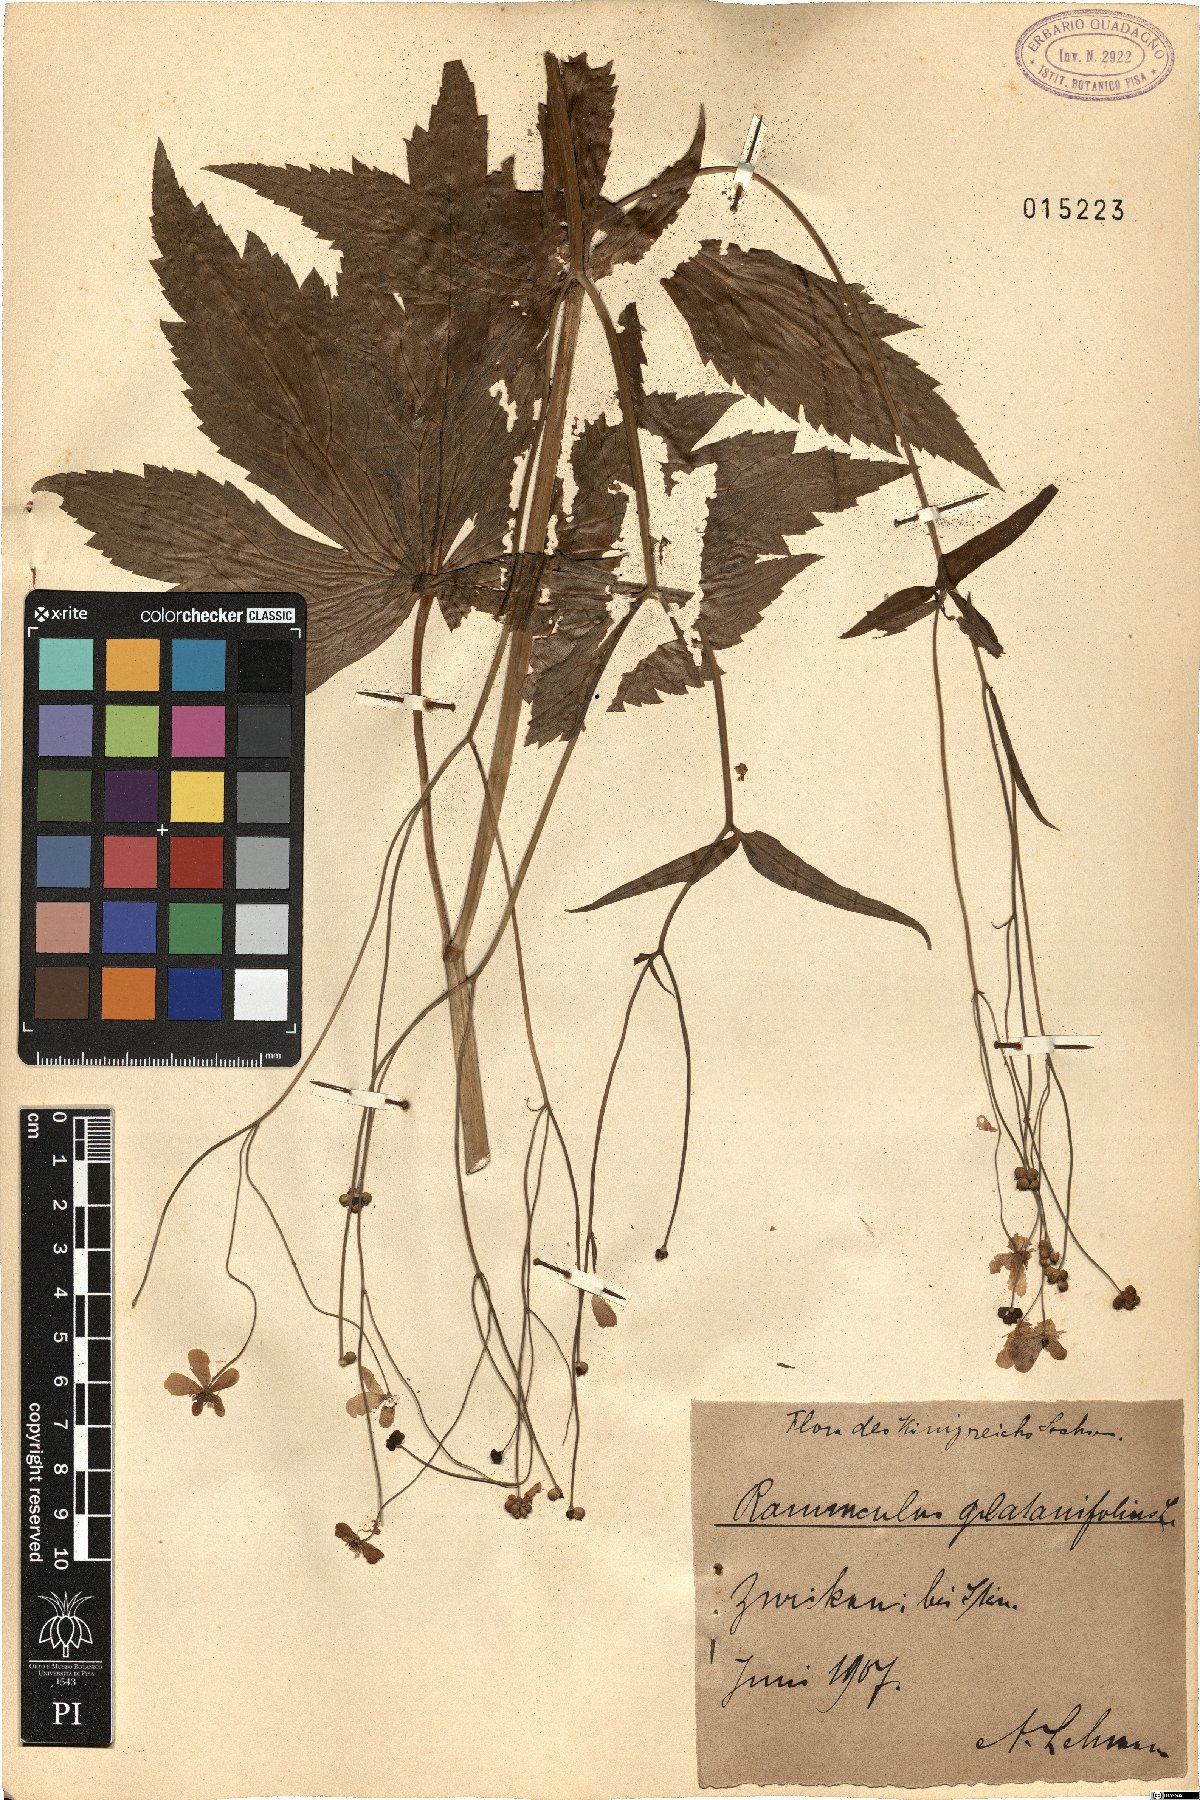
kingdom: Plantae
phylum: Tracheophyta
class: Magnoliopsida
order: Ranunculales
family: Ranunculaceae
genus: Ranunculus
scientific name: Ranunculus platanifolius
